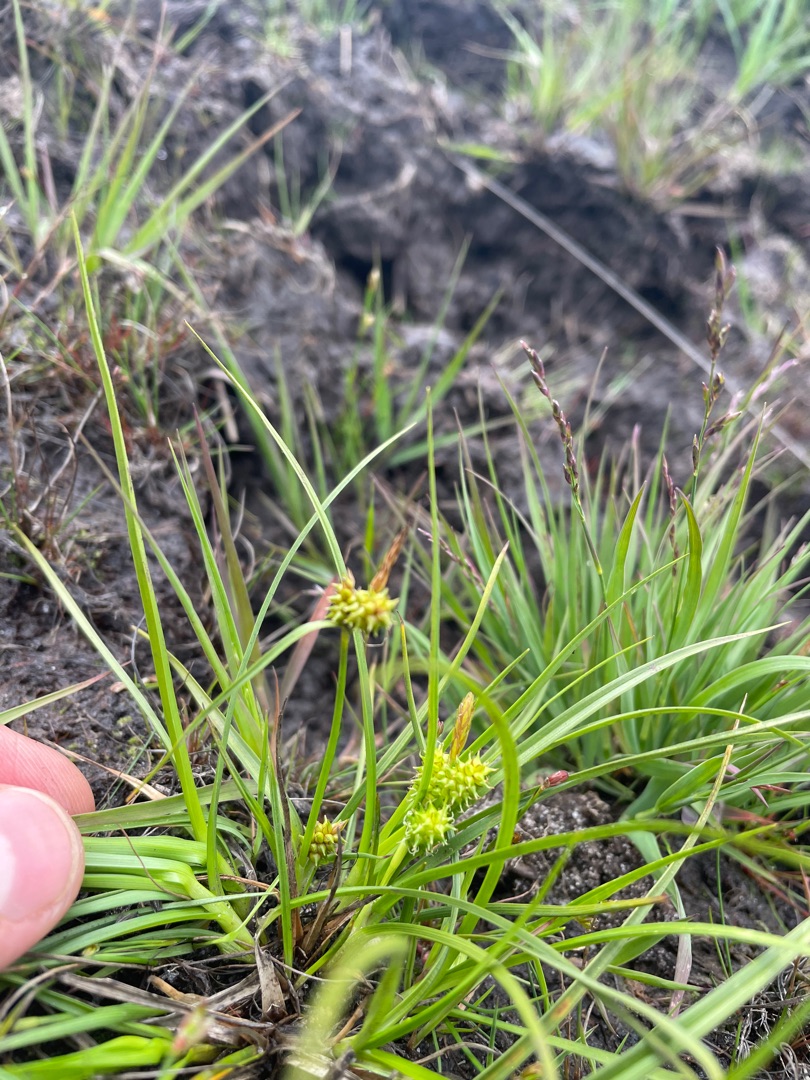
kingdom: Plantae
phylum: Tracheophyta
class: Liliopsida
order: Poales
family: Cyperaceae
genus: Carex
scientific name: Carex demissa
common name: Grøn star
